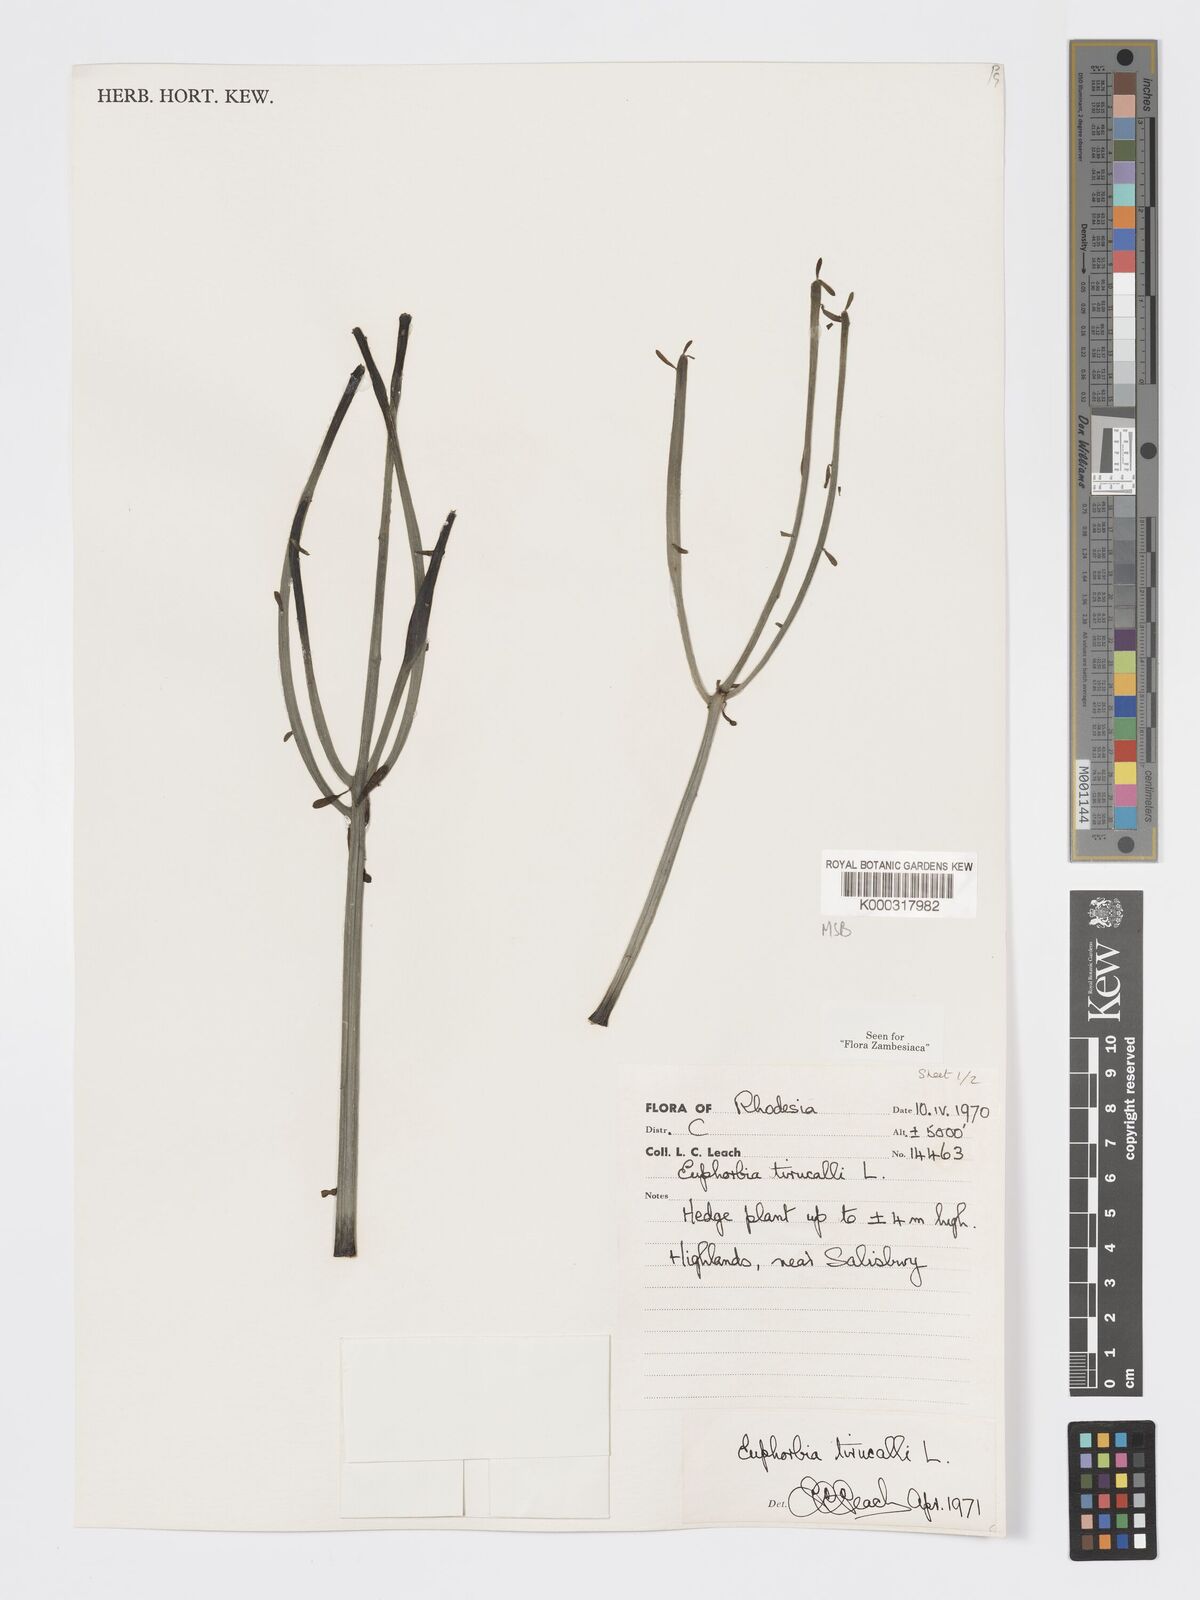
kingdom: Plantae
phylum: Tracheophyta
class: Magnoliopsida
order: Malpighiales
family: Euphorbiaceae
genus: Euphorbia
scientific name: Euphorbia tirucalli
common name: Indiantree spurge
